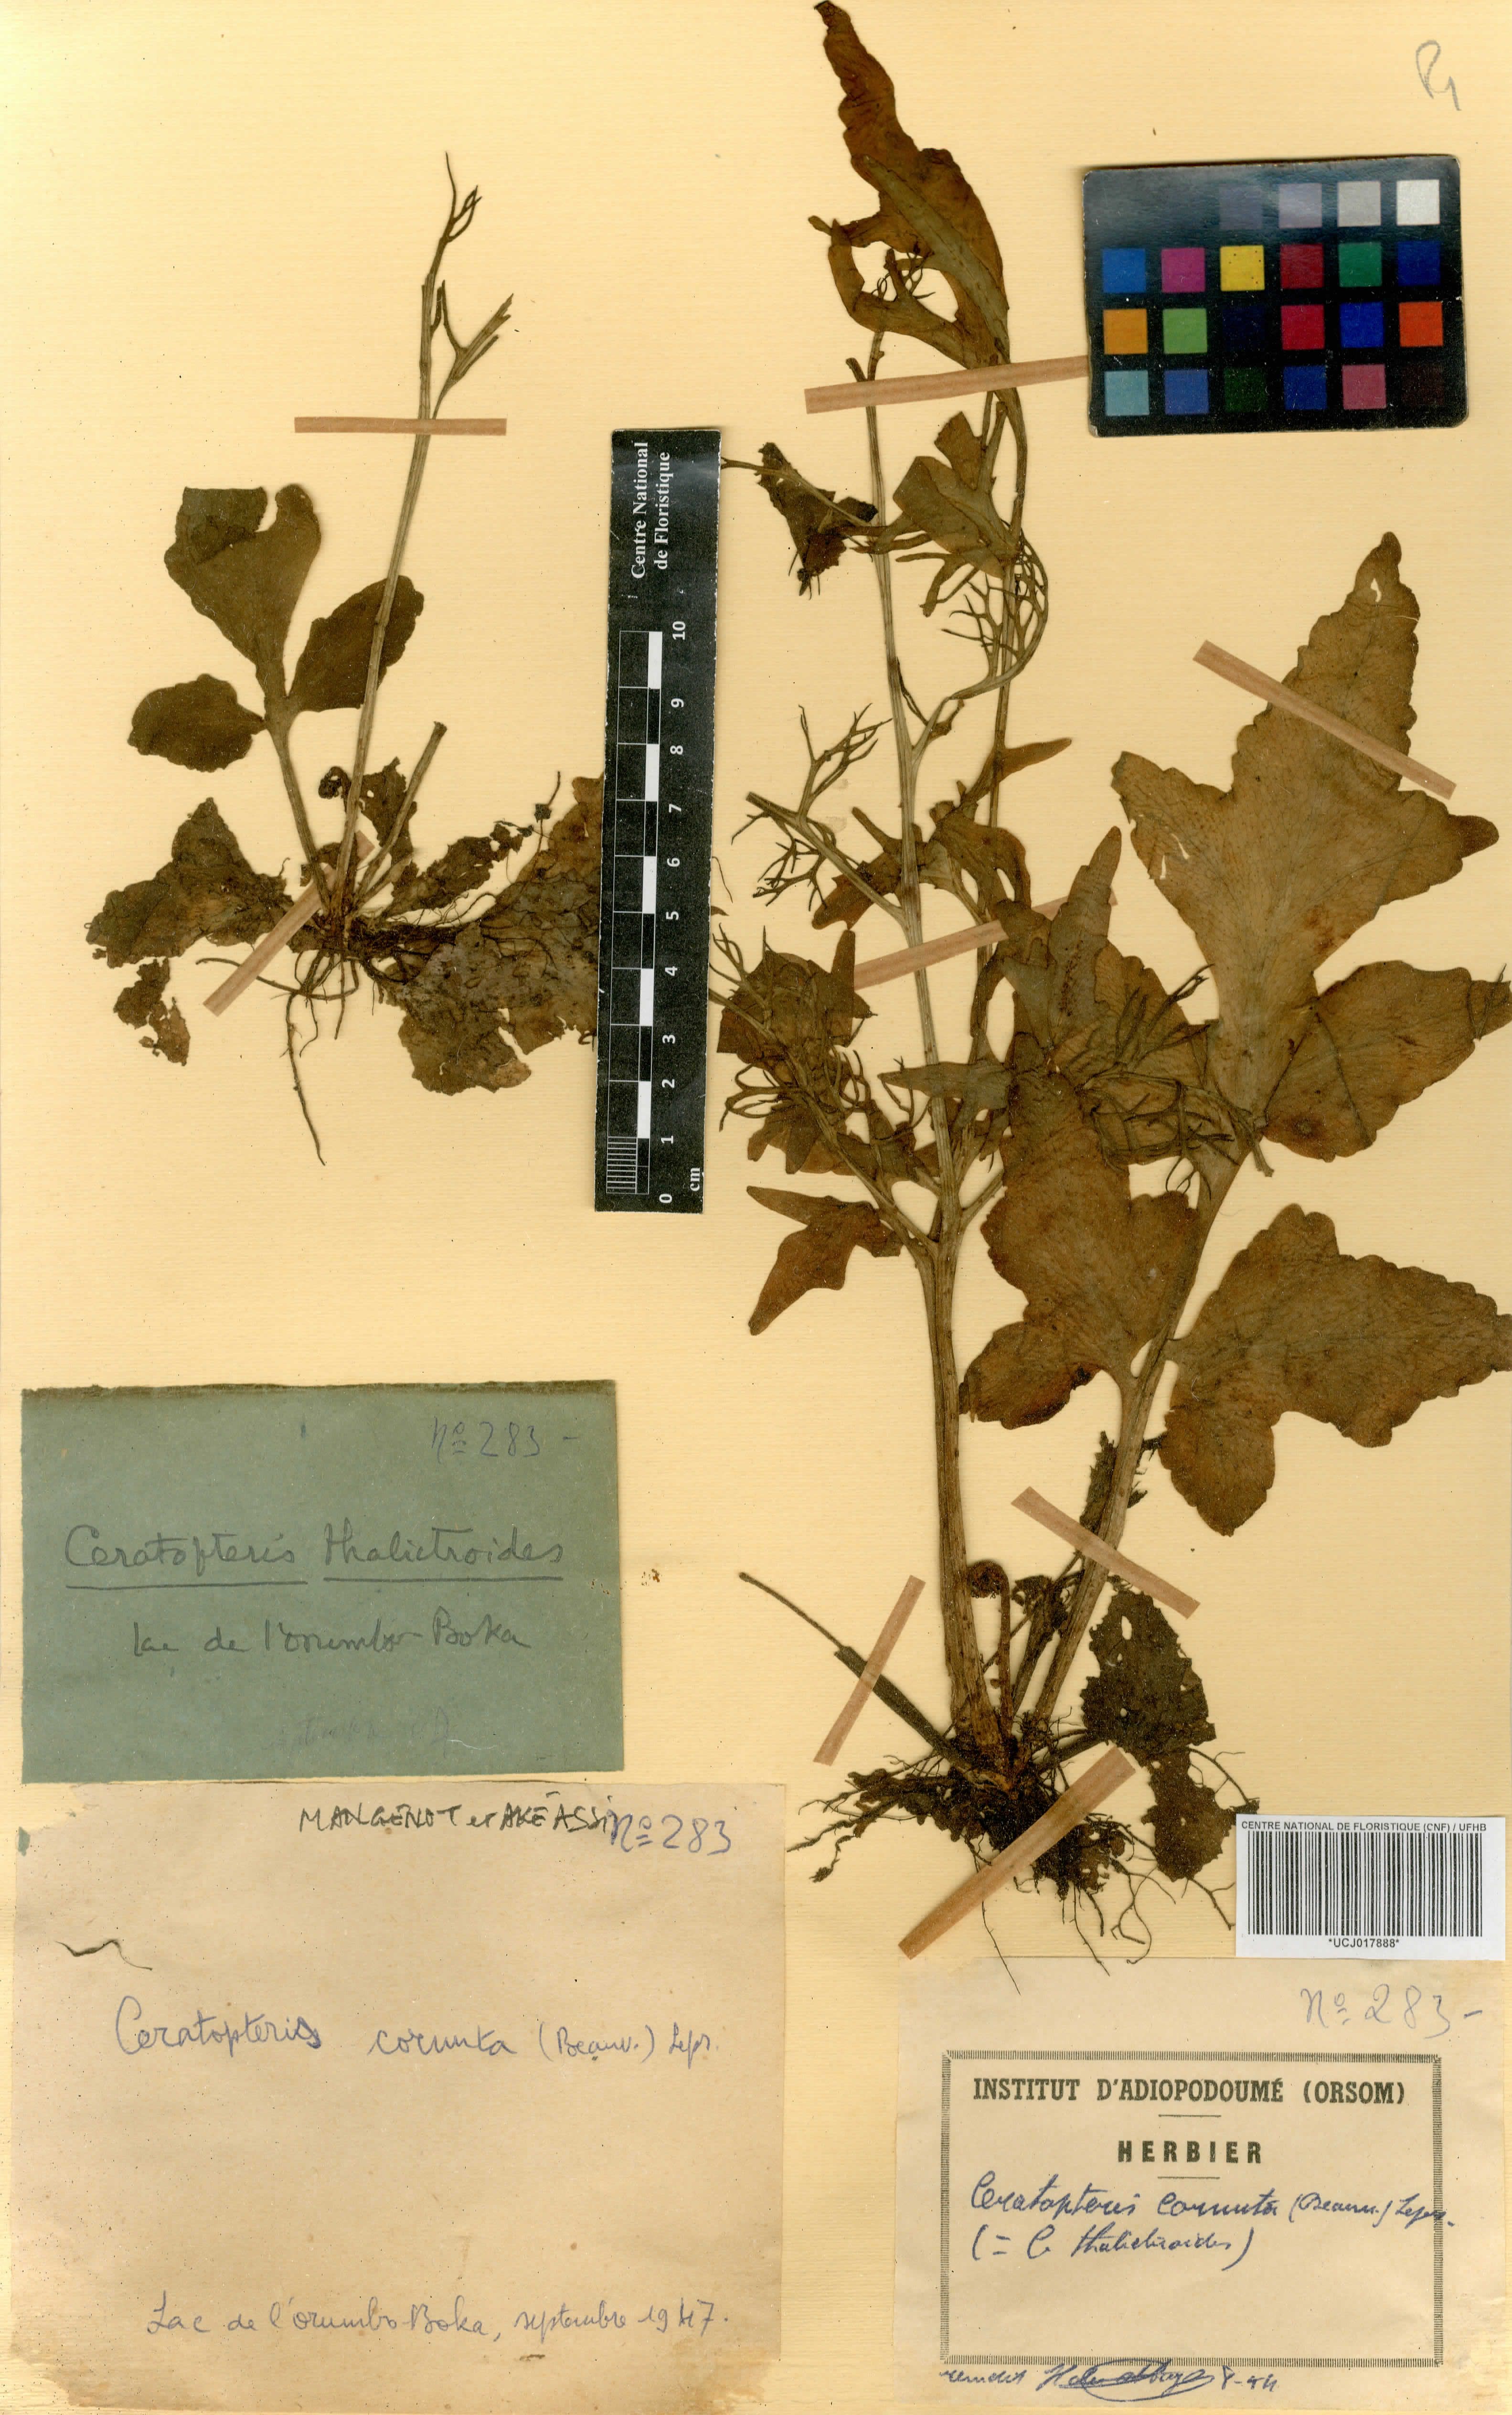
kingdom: Plantae
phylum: Tracheophyta
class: Polypodiopsida
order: Polypodiales
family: Pteridaceae
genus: Ceratopteris
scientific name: Ceratopteris cornuta
